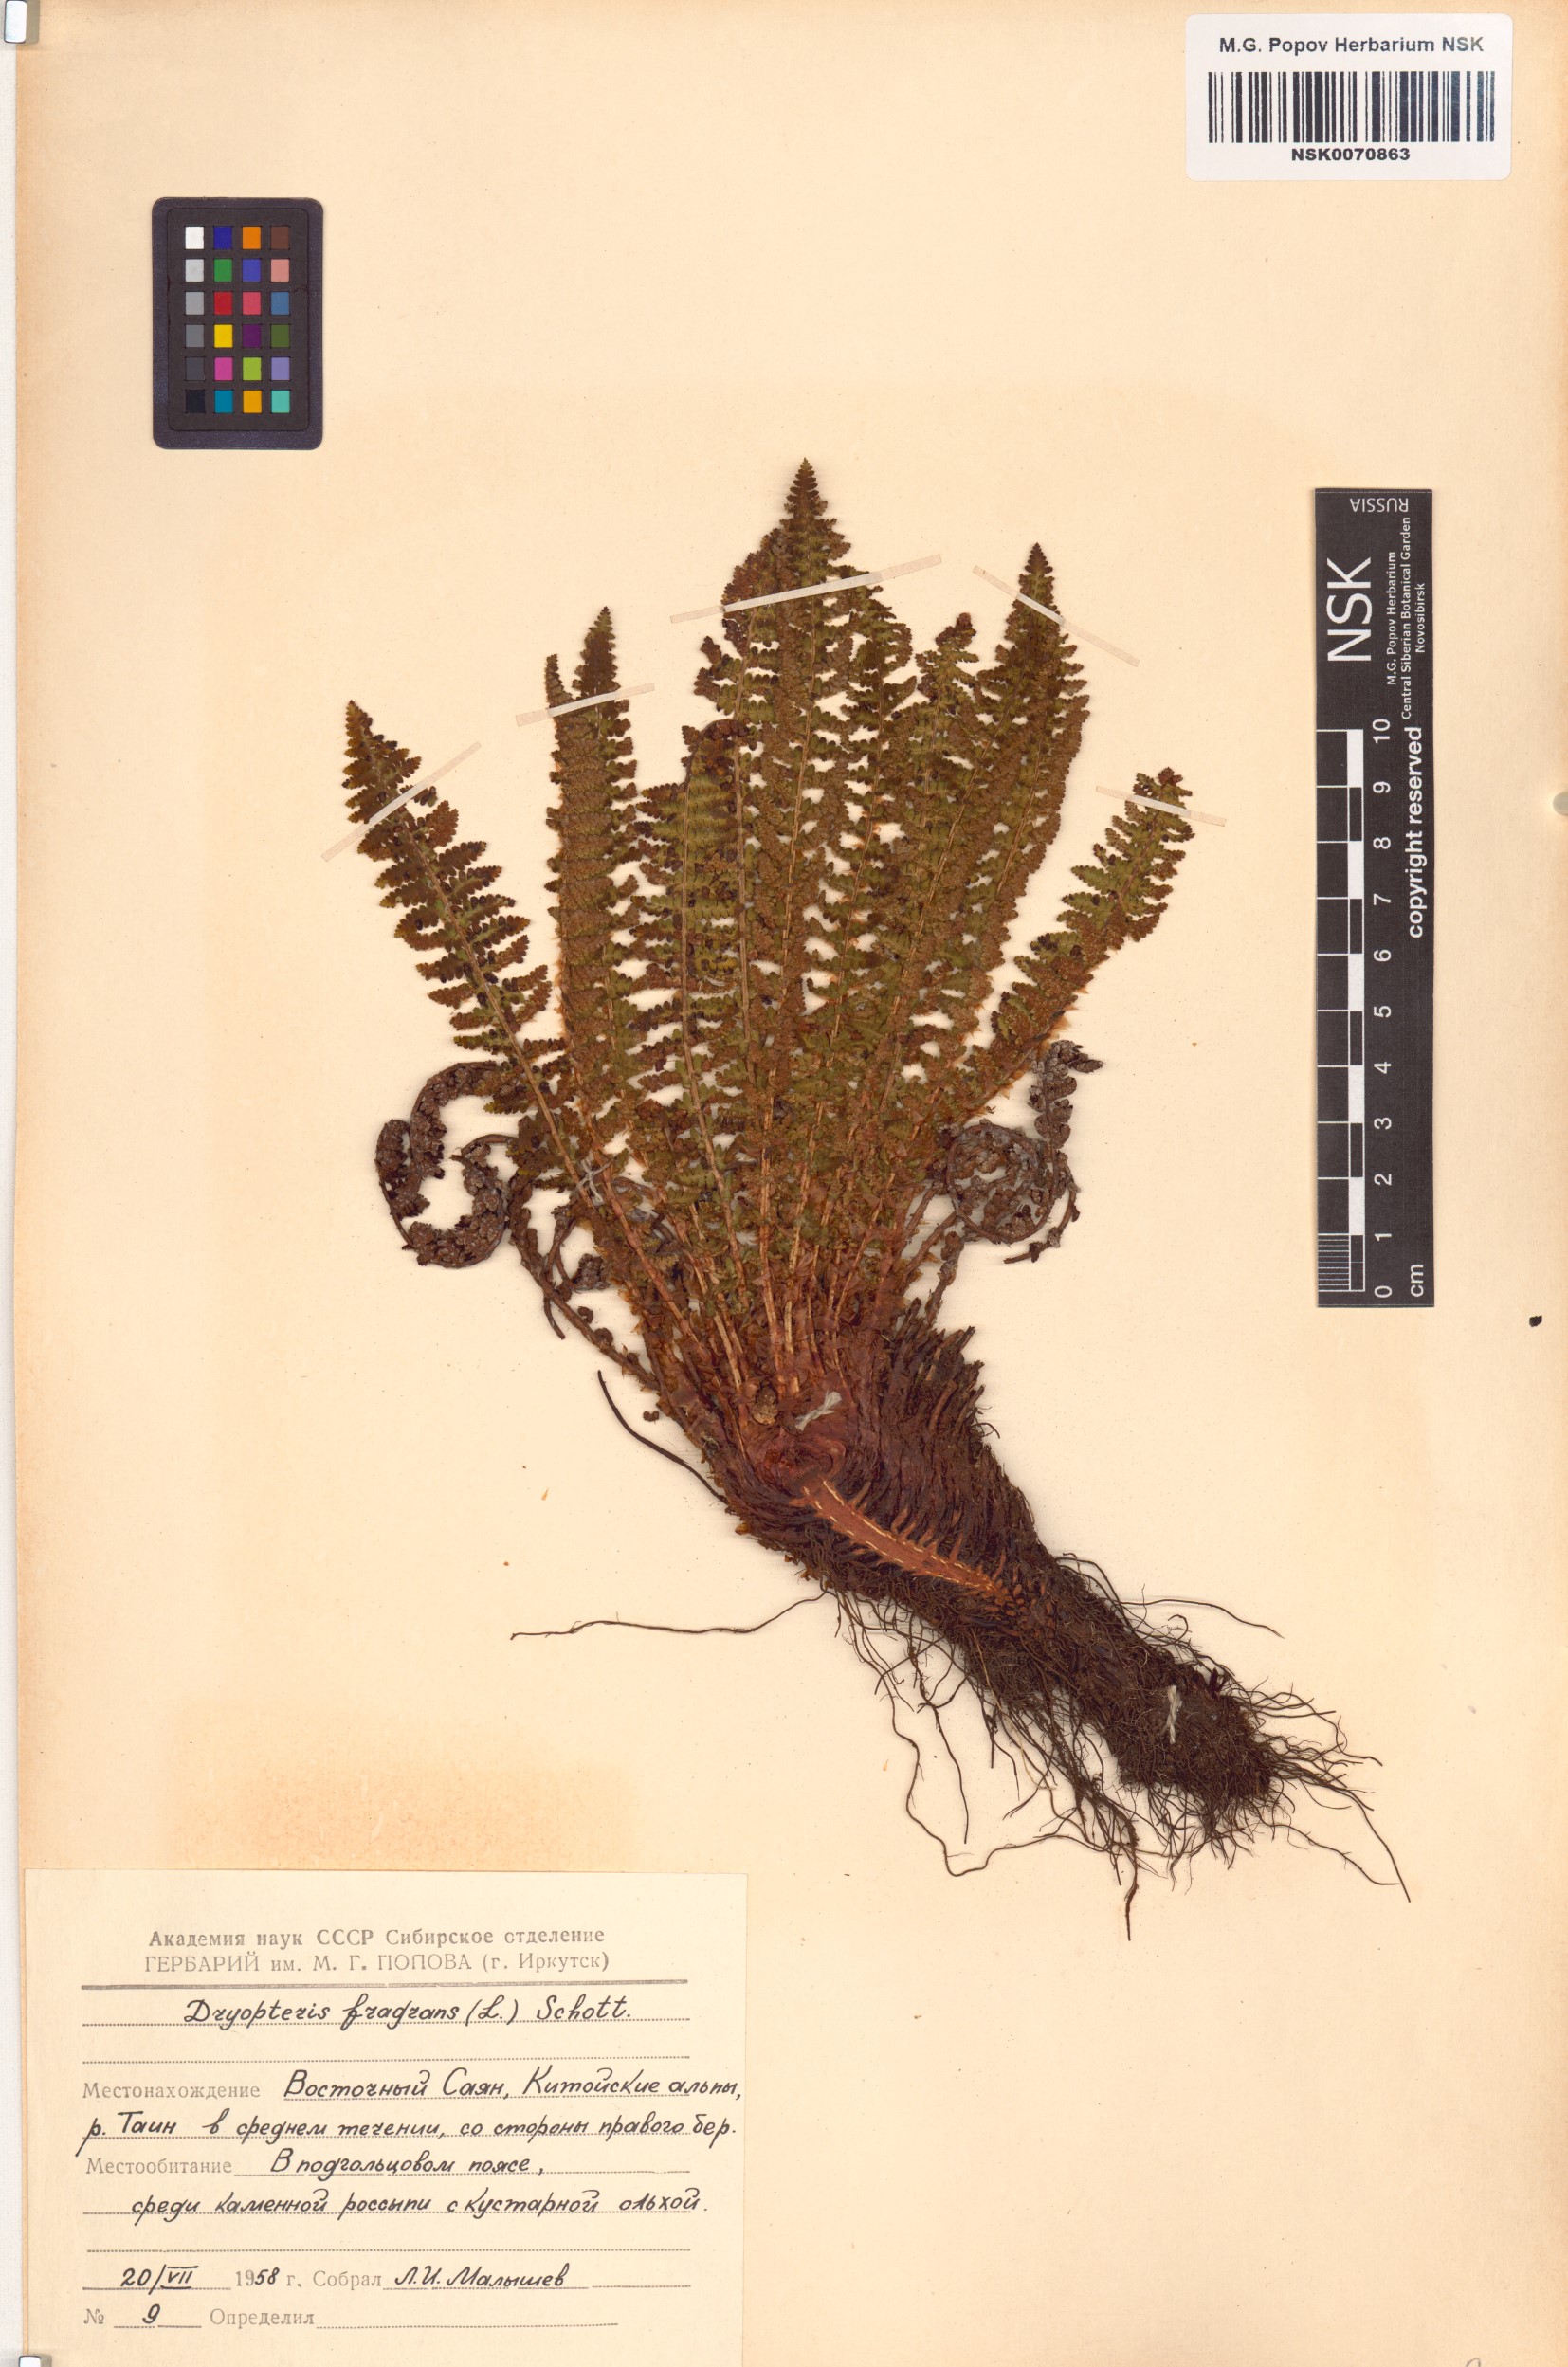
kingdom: Plantae
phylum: Tracheophyta
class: Polypodiopsida
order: Polypodiales
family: Dryopteridaceae
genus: Dryopteris
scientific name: Dryopteris fragrans
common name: Fragrant wood fern
